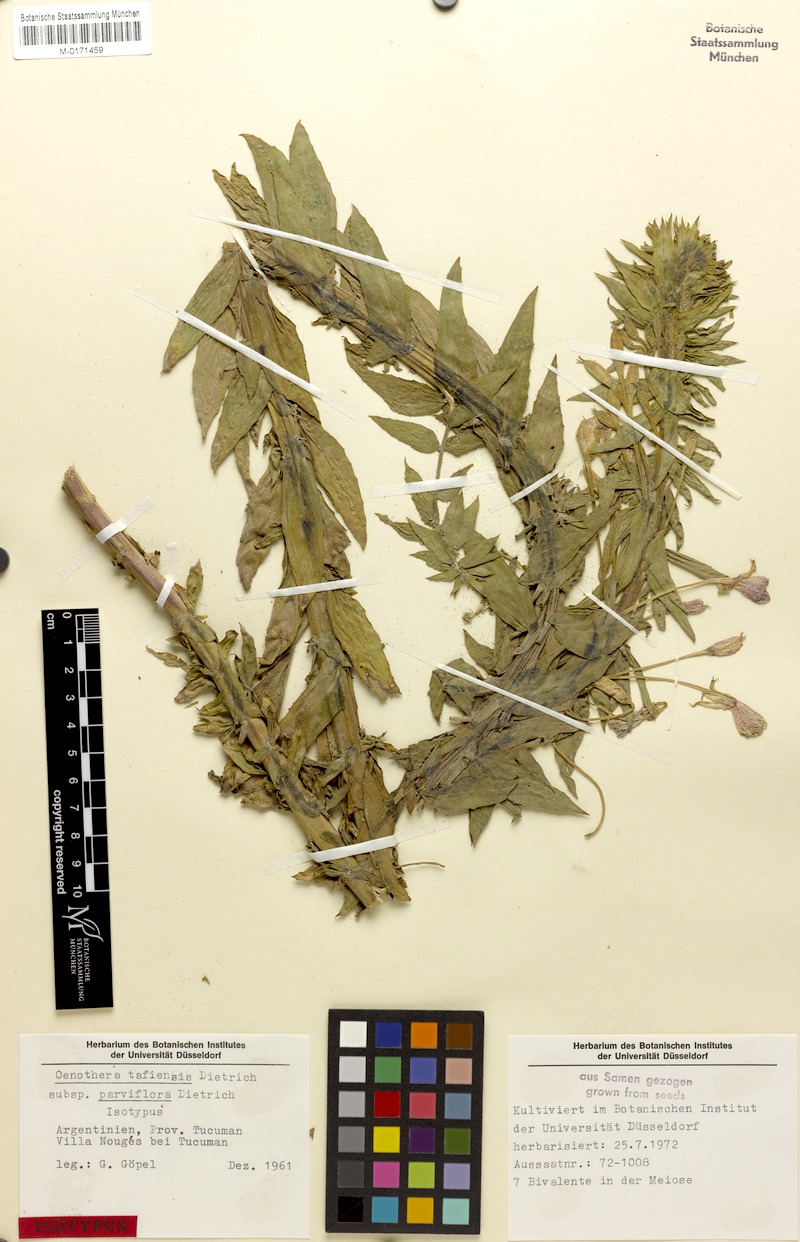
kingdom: Plantae
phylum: Tracheophyta
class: Magnoliopsida
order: Myrtales
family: Onagraceae
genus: Oenothera
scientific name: Oenothera tafiensis
